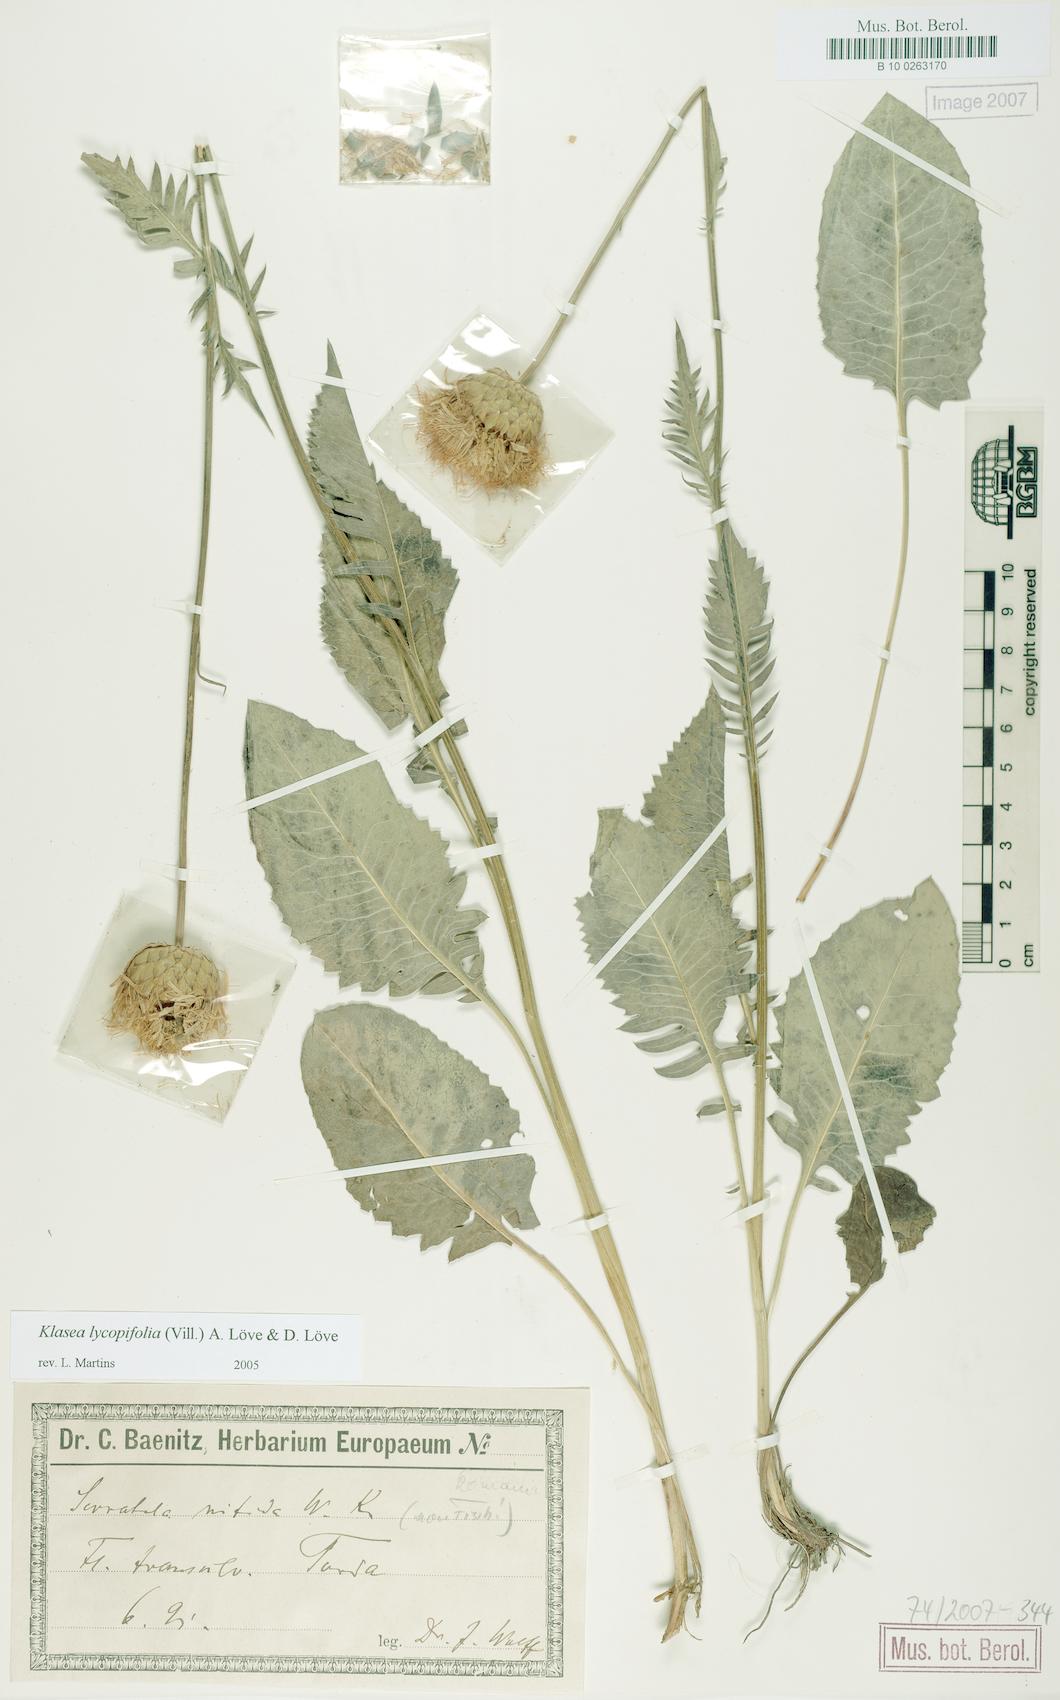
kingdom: Plantae
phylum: Tracheophyta
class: Magnoliopsida
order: Asterales
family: Asteraceae
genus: Klasea
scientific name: Klasea lycopifolia
